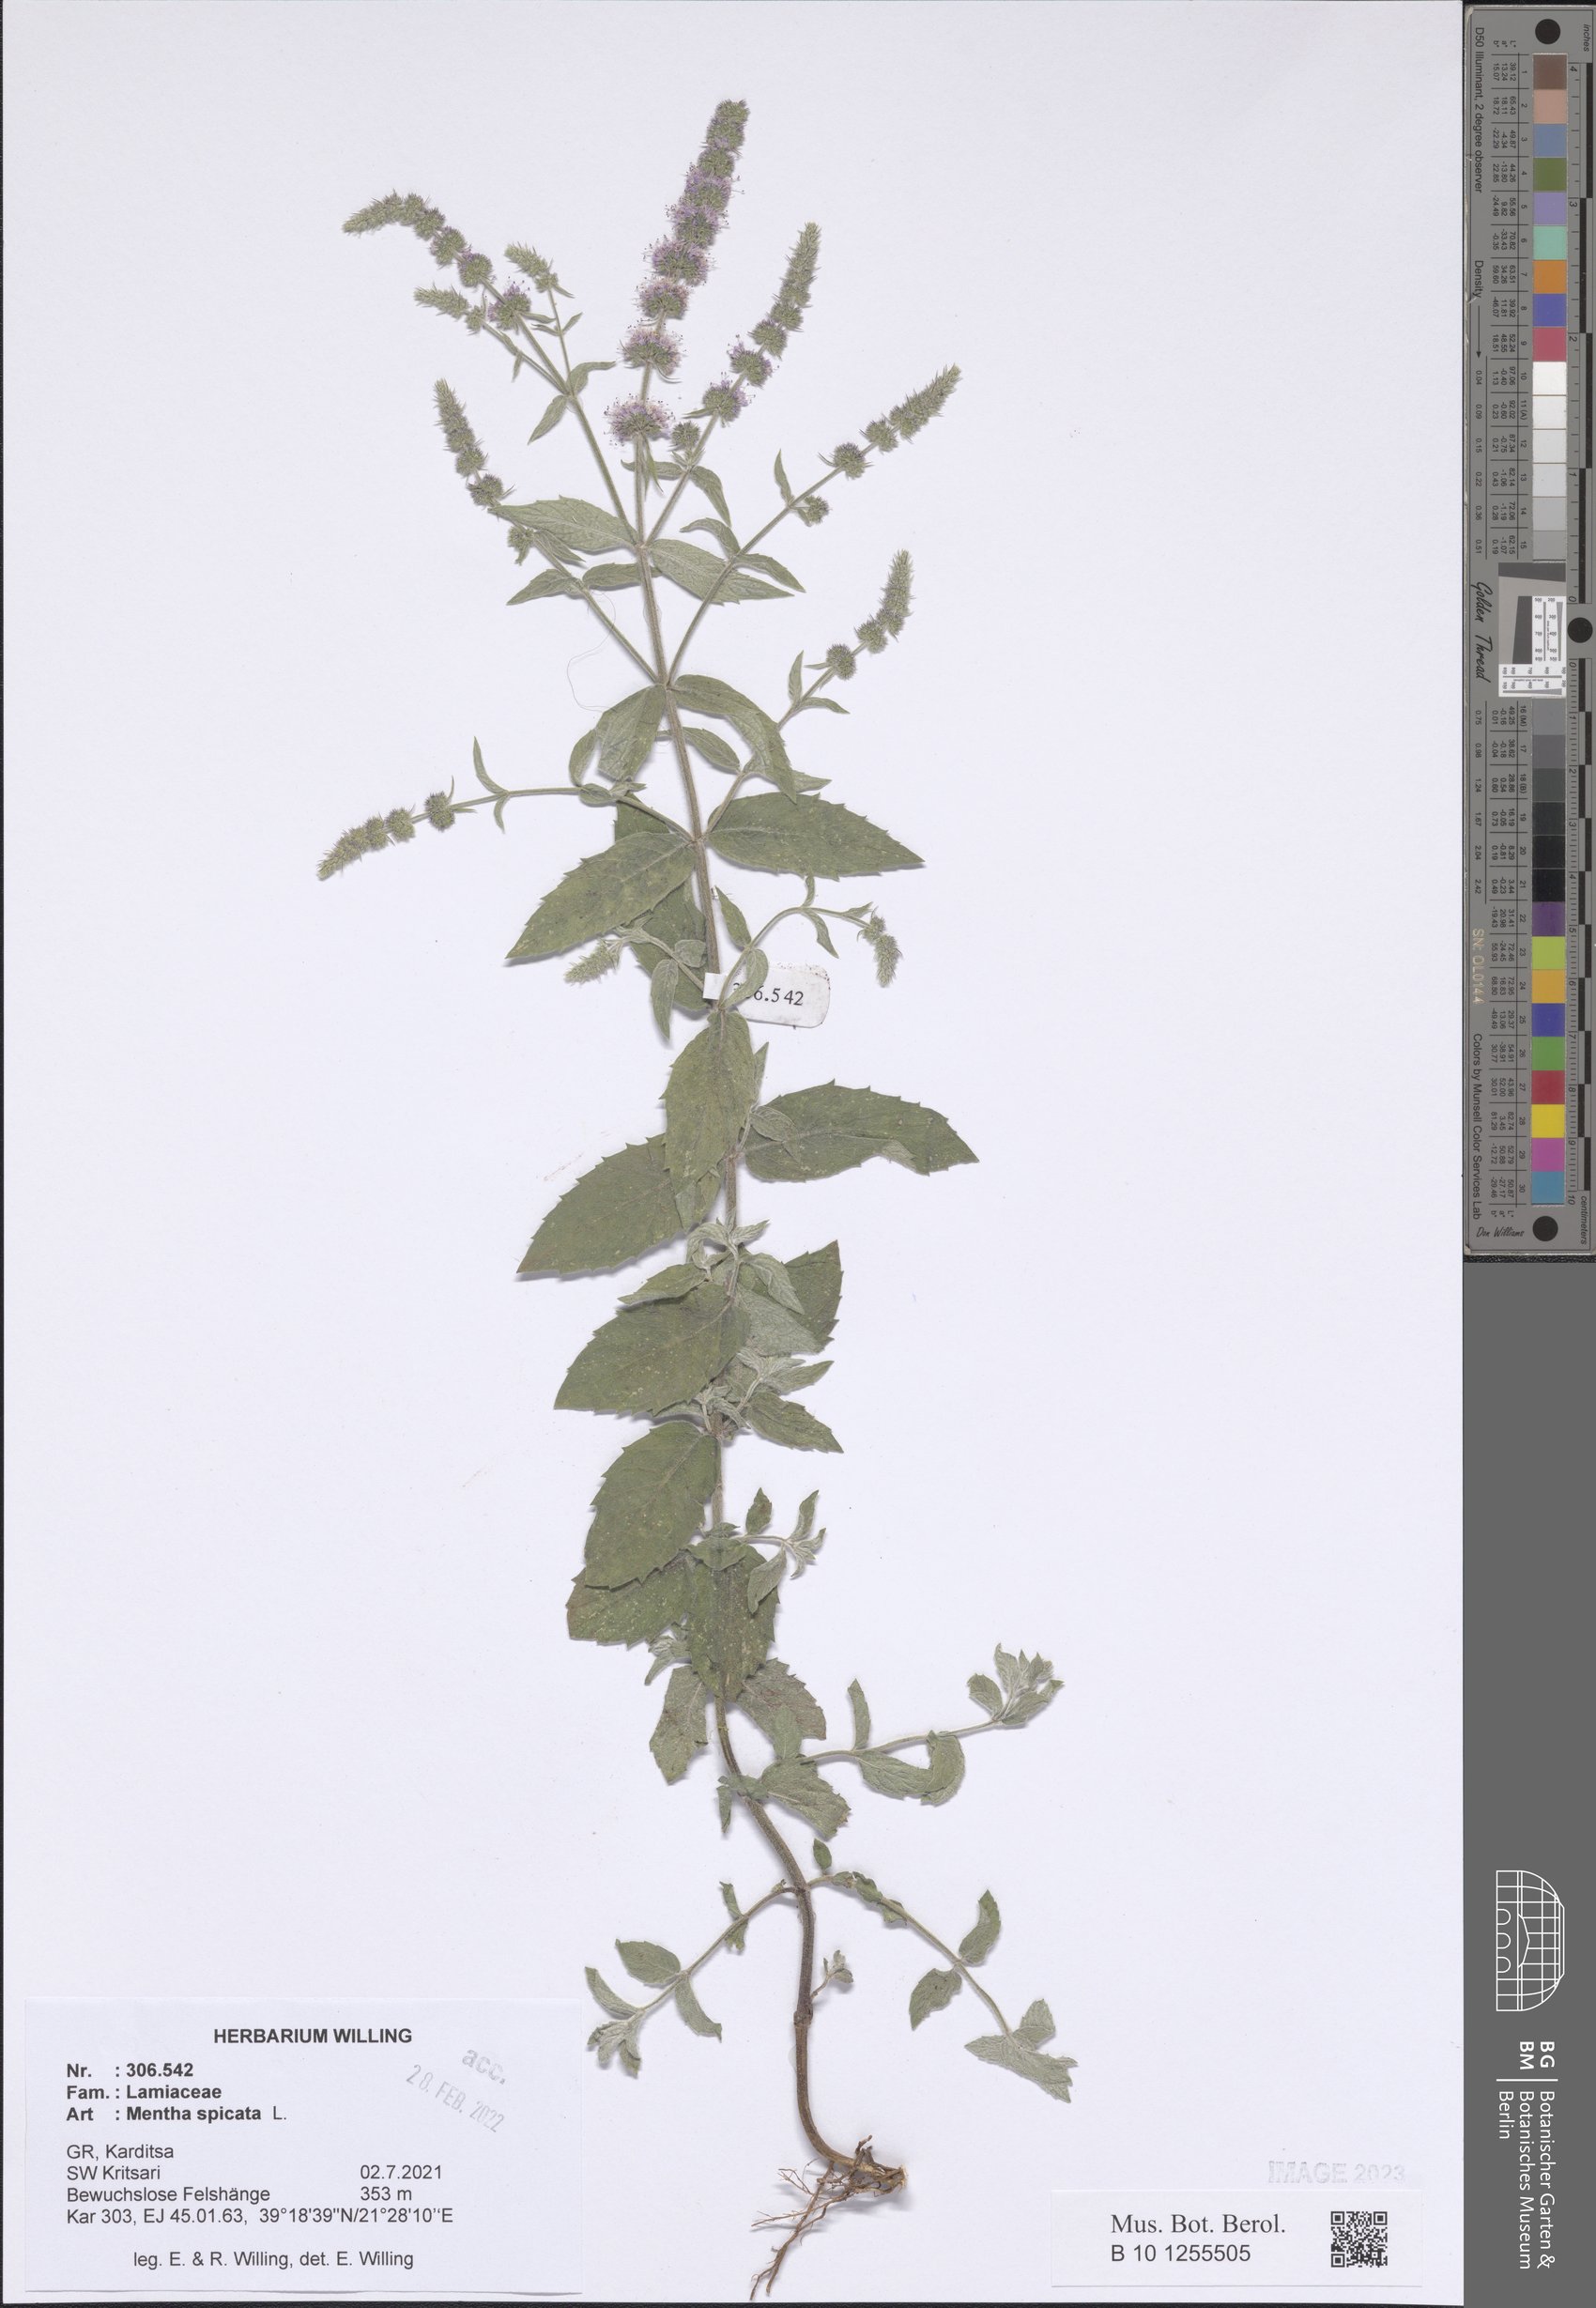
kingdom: Plantae
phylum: Tracheophyta
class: Magnoliopsida
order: Lamiales
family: Lamiaceae
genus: Mentha
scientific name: Mentha spicata
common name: Spearmint
